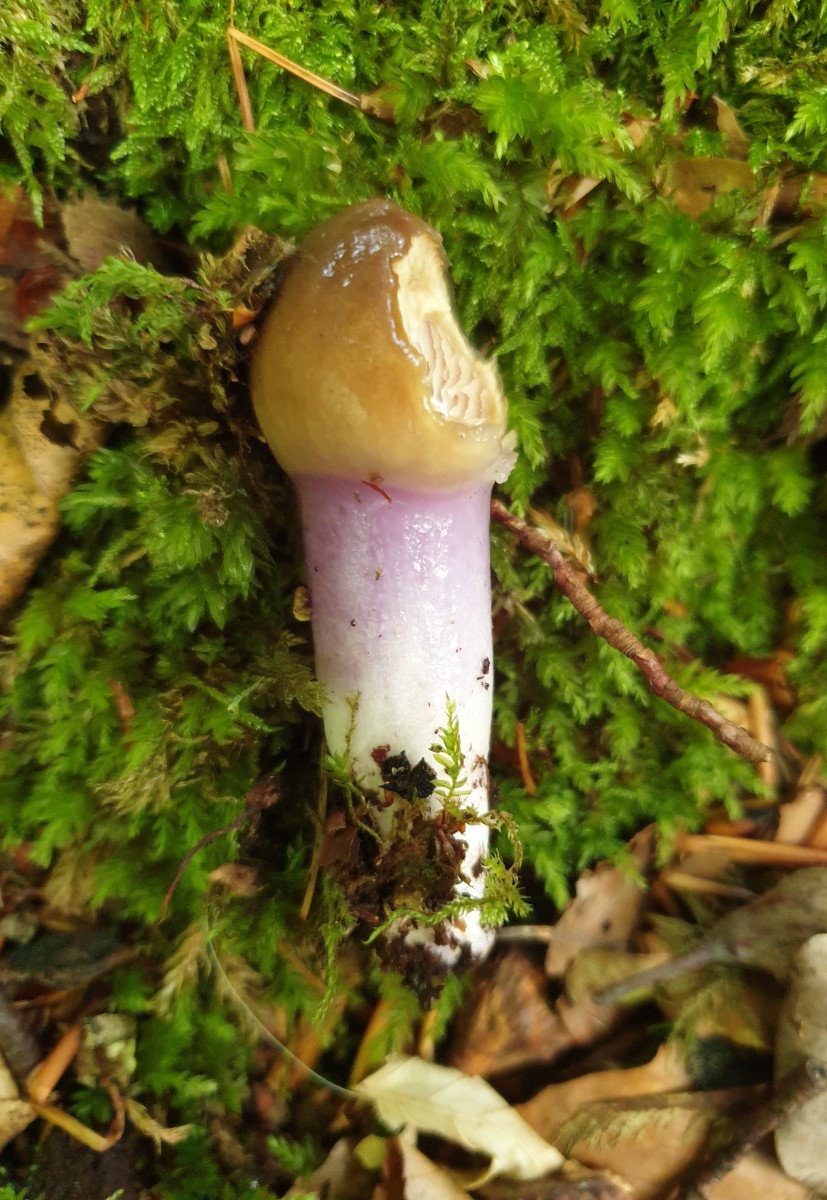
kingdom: Fungi
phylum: Basidiomycota
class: Agaricomycetes
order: Agaricales
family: Cortinariaceae
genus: Cortinarius
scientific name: Cortinarius
